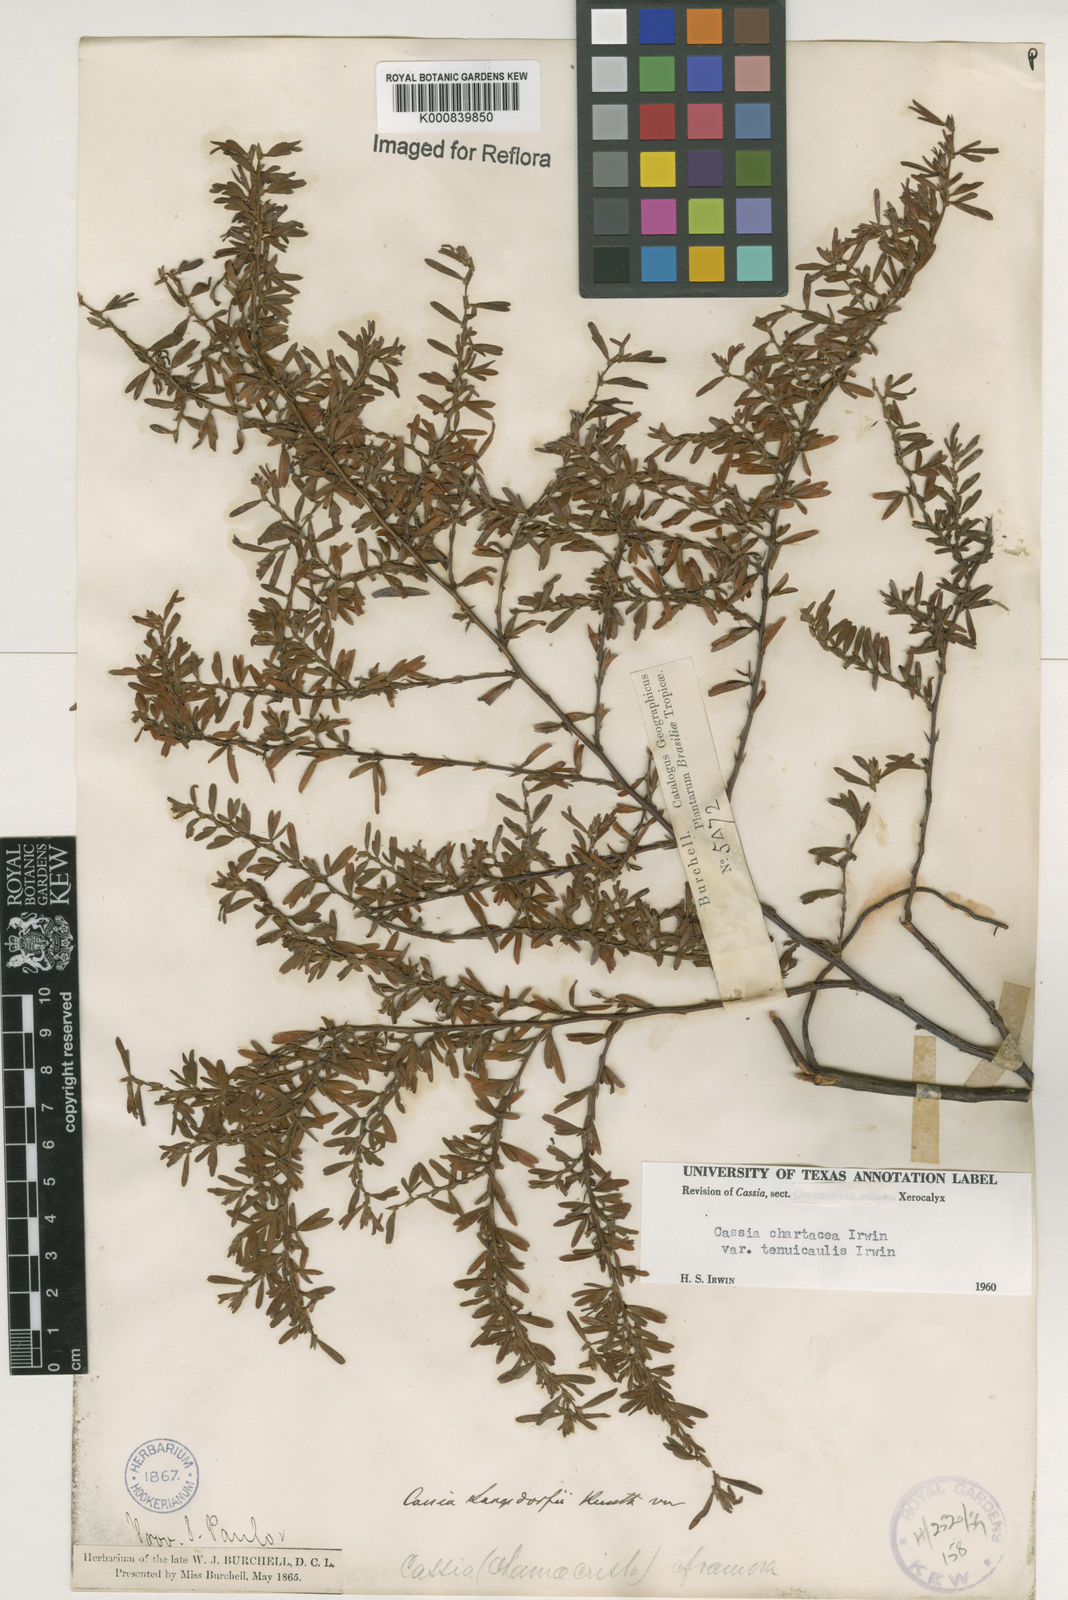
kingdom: Plantae
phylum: Tracheophyta
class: Magnoliopsida
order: Fabales
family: Fabaceae
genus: Chamaecrista
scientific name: Chamaecrista ramosa
